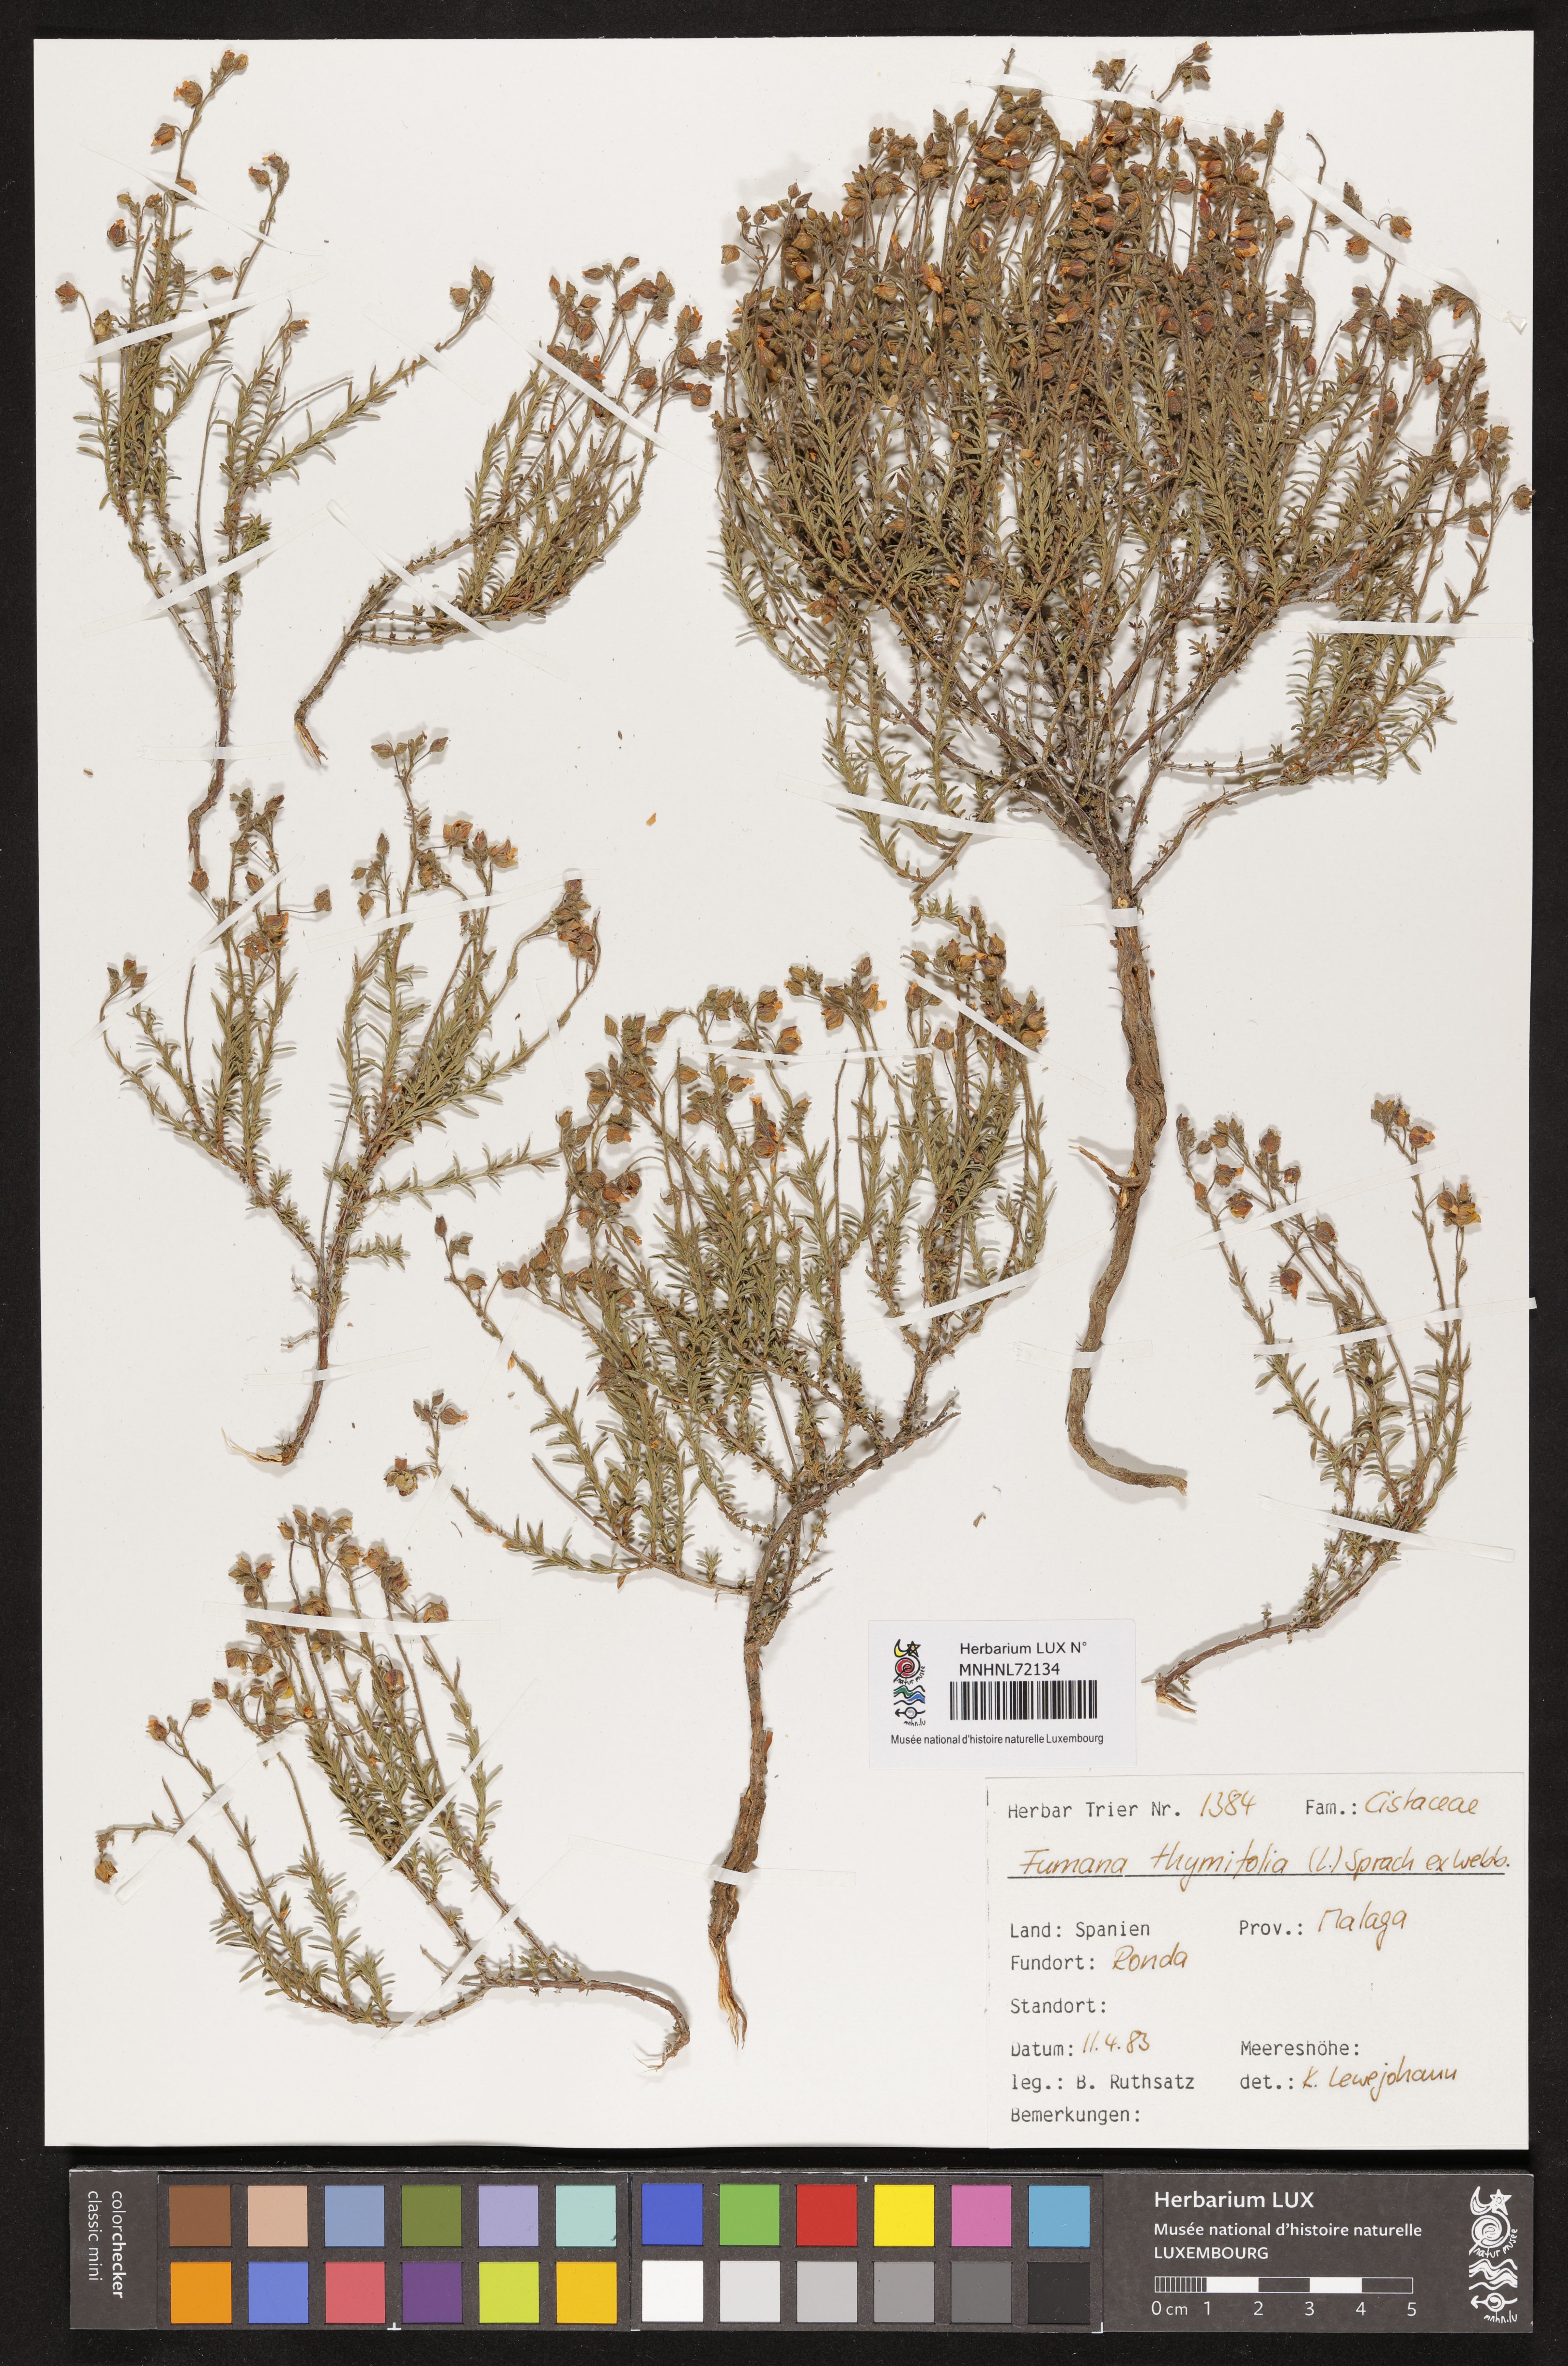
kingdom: Plantae
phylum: Tracheophyta
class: Magnoliopsida
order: Malvales
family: Cistaceae
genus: Fumana
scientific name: Fumana thymifolia
